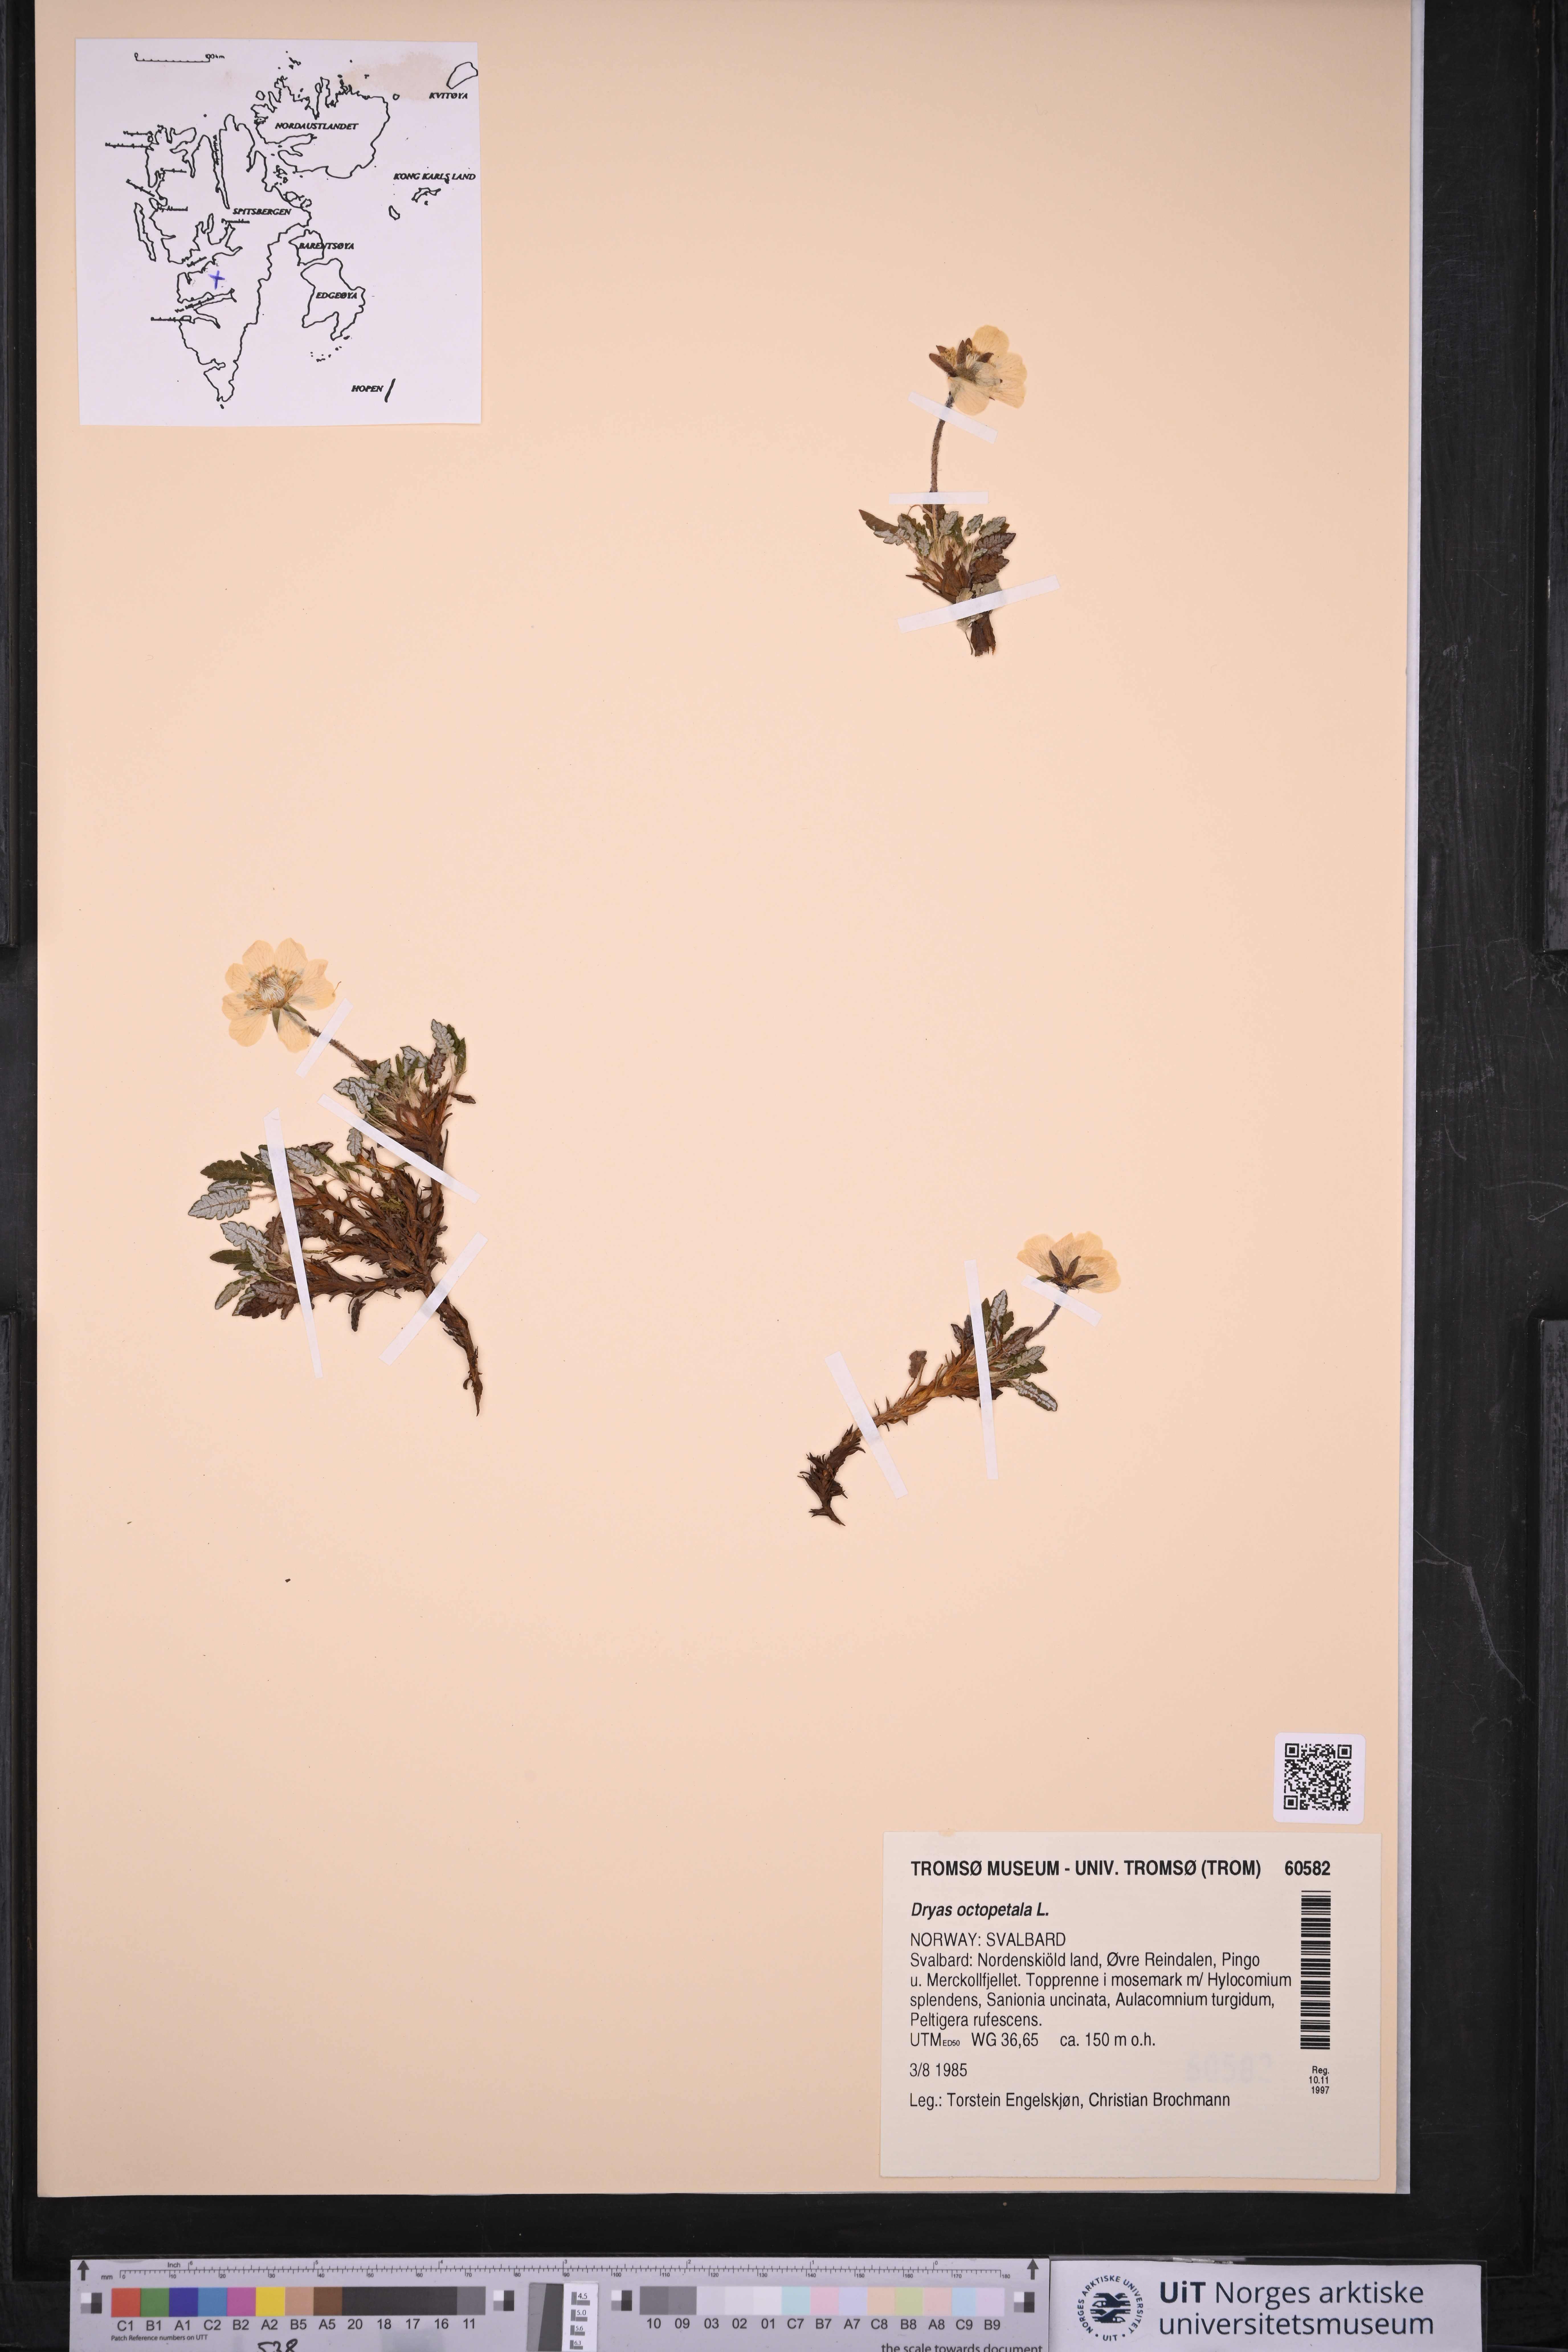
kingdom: Plantae
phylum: Tracheophyta
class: Magnoliopsida
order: Rosales
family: Rosaceae
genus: Dryas
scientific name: Dryas octopetala
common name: Eight-petal mountain-avens
